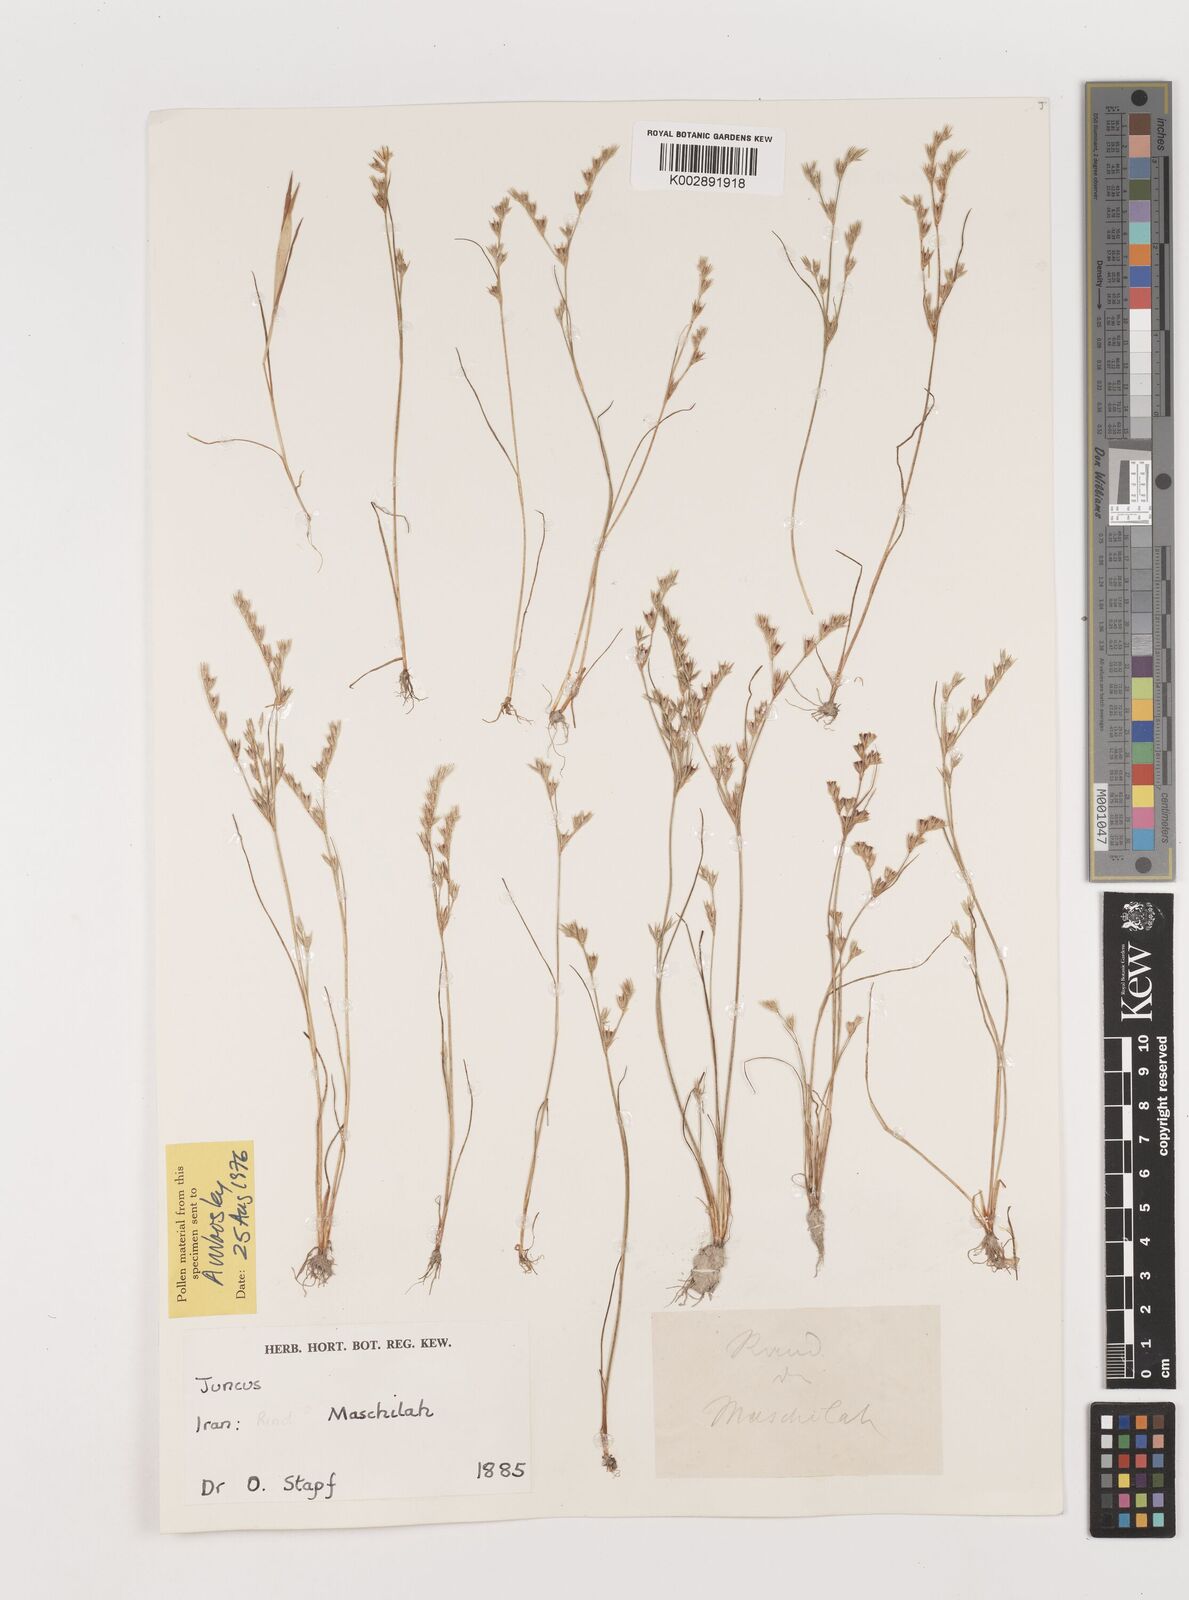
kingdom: Plantae
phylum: Tracheophyta
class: Liliopsida
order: Poales
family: Juncaceae
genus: Juncus
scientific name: Juncus
